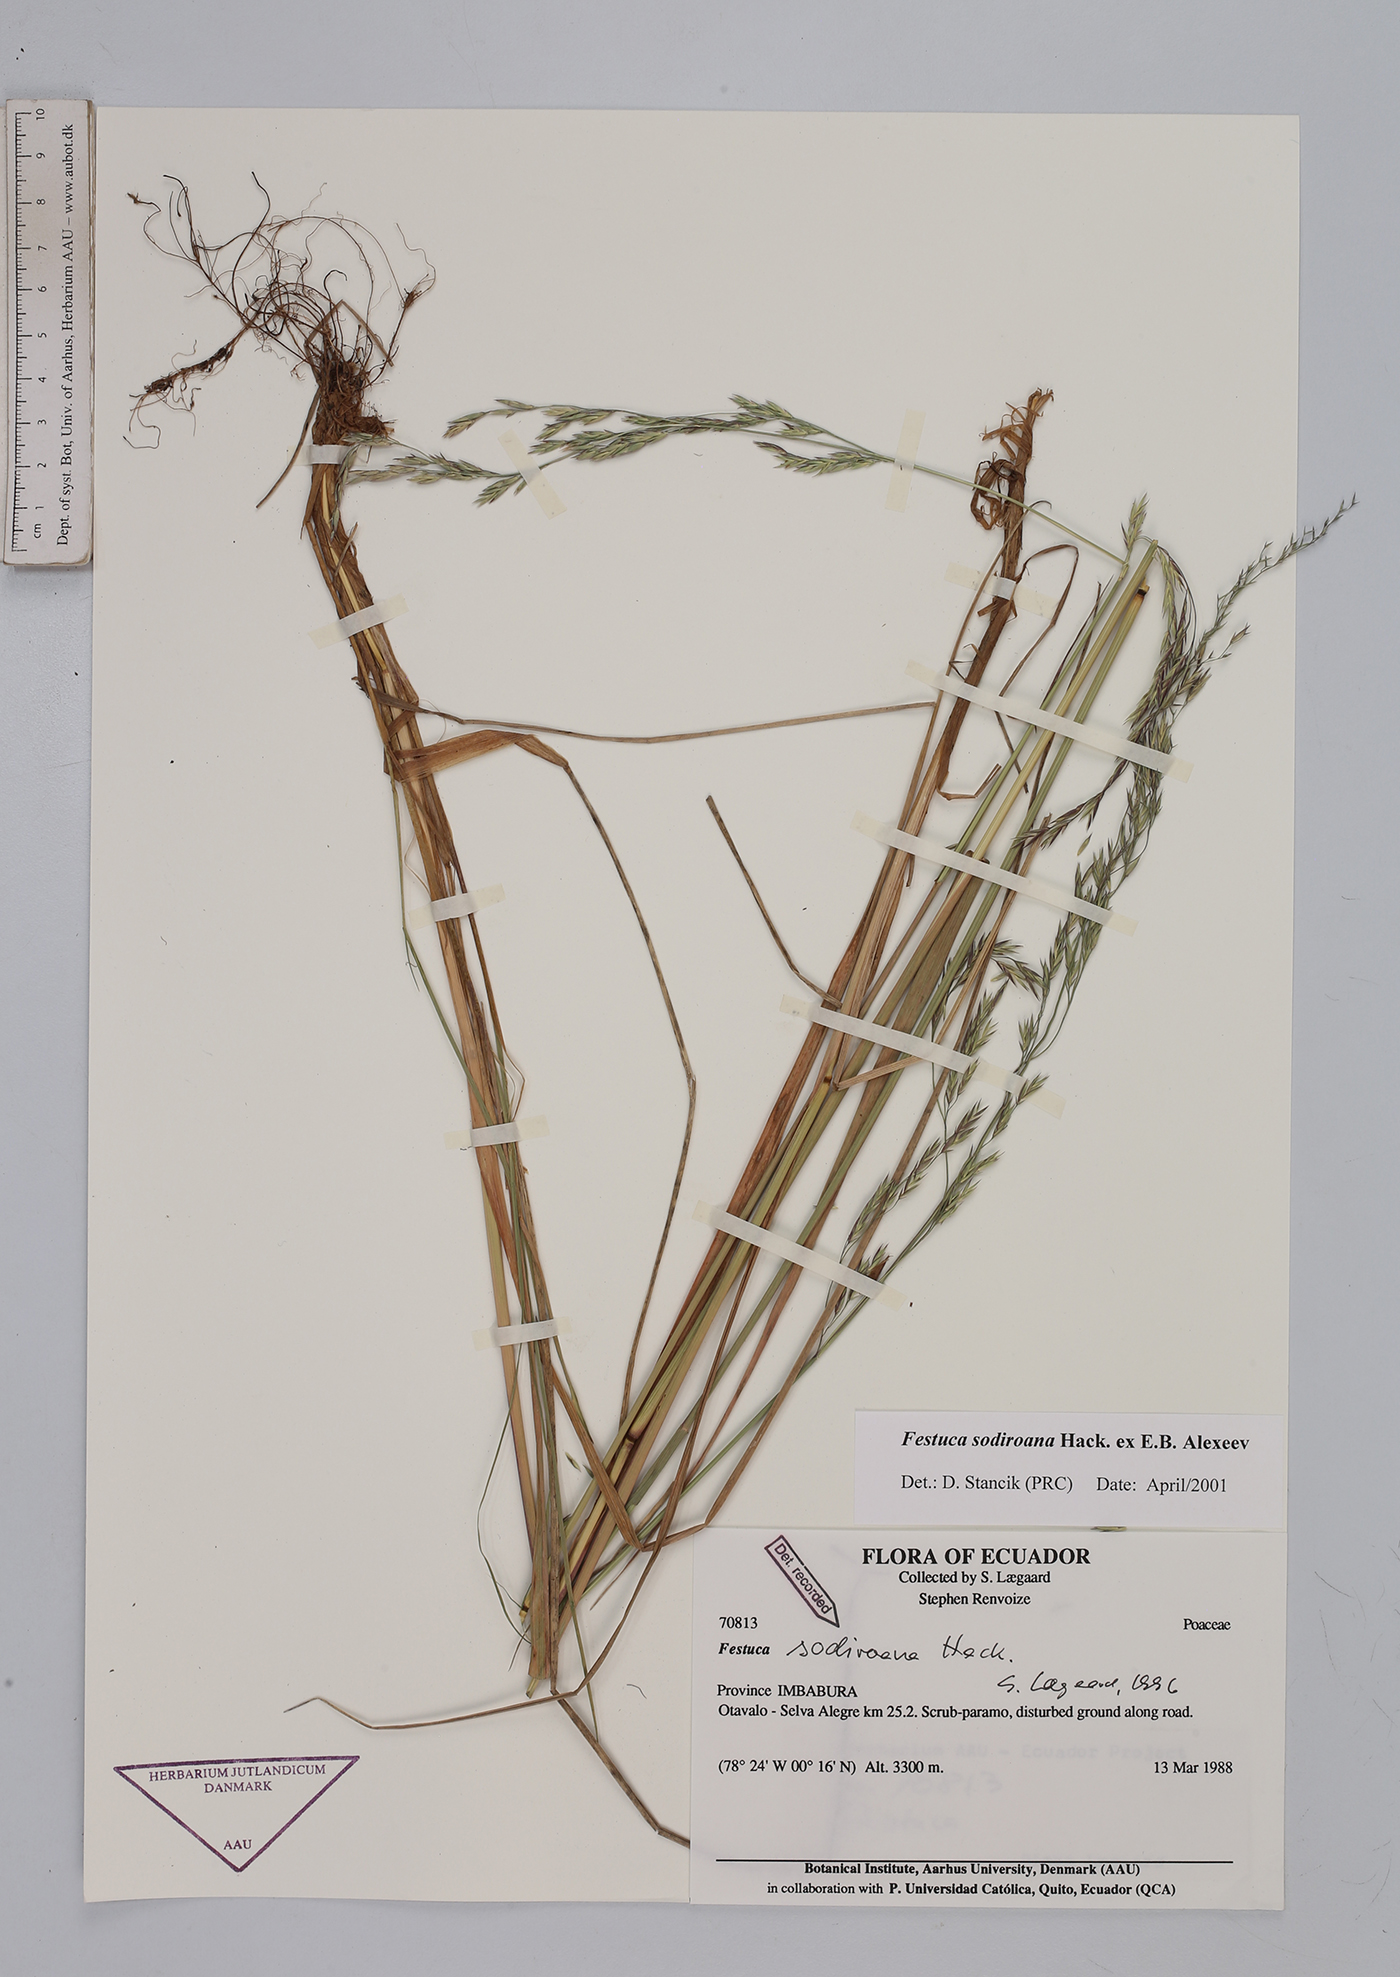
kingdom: Plantae
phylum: Tracheophyta
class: Liliopsida
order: Poales
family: Poaceae
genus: Festuca
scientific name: Festuca sodiroana
